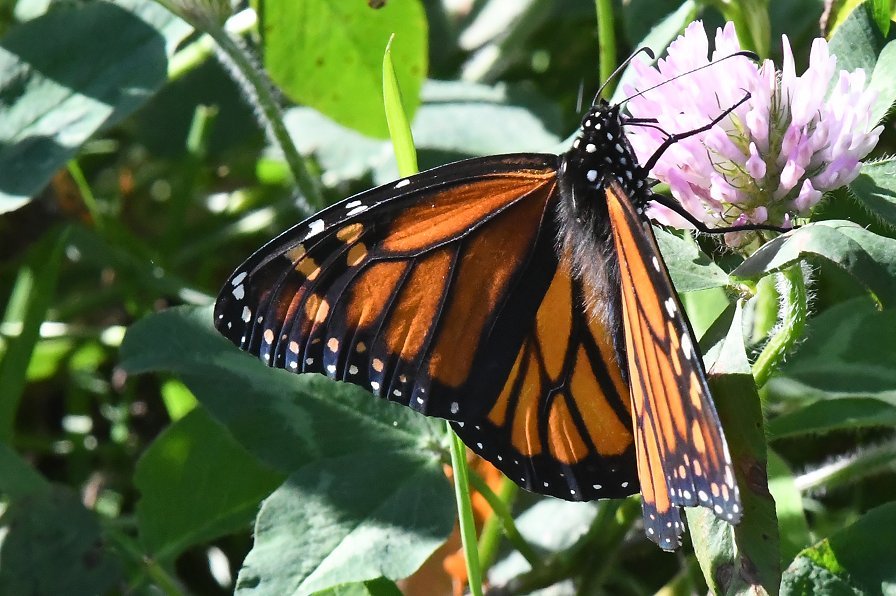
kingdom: Animalia
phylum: Arthropoda
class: Insecta
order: Lepidoptera
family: Nymphalidae
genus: Danaus
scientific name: Danaus plexippus
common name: Monarch
